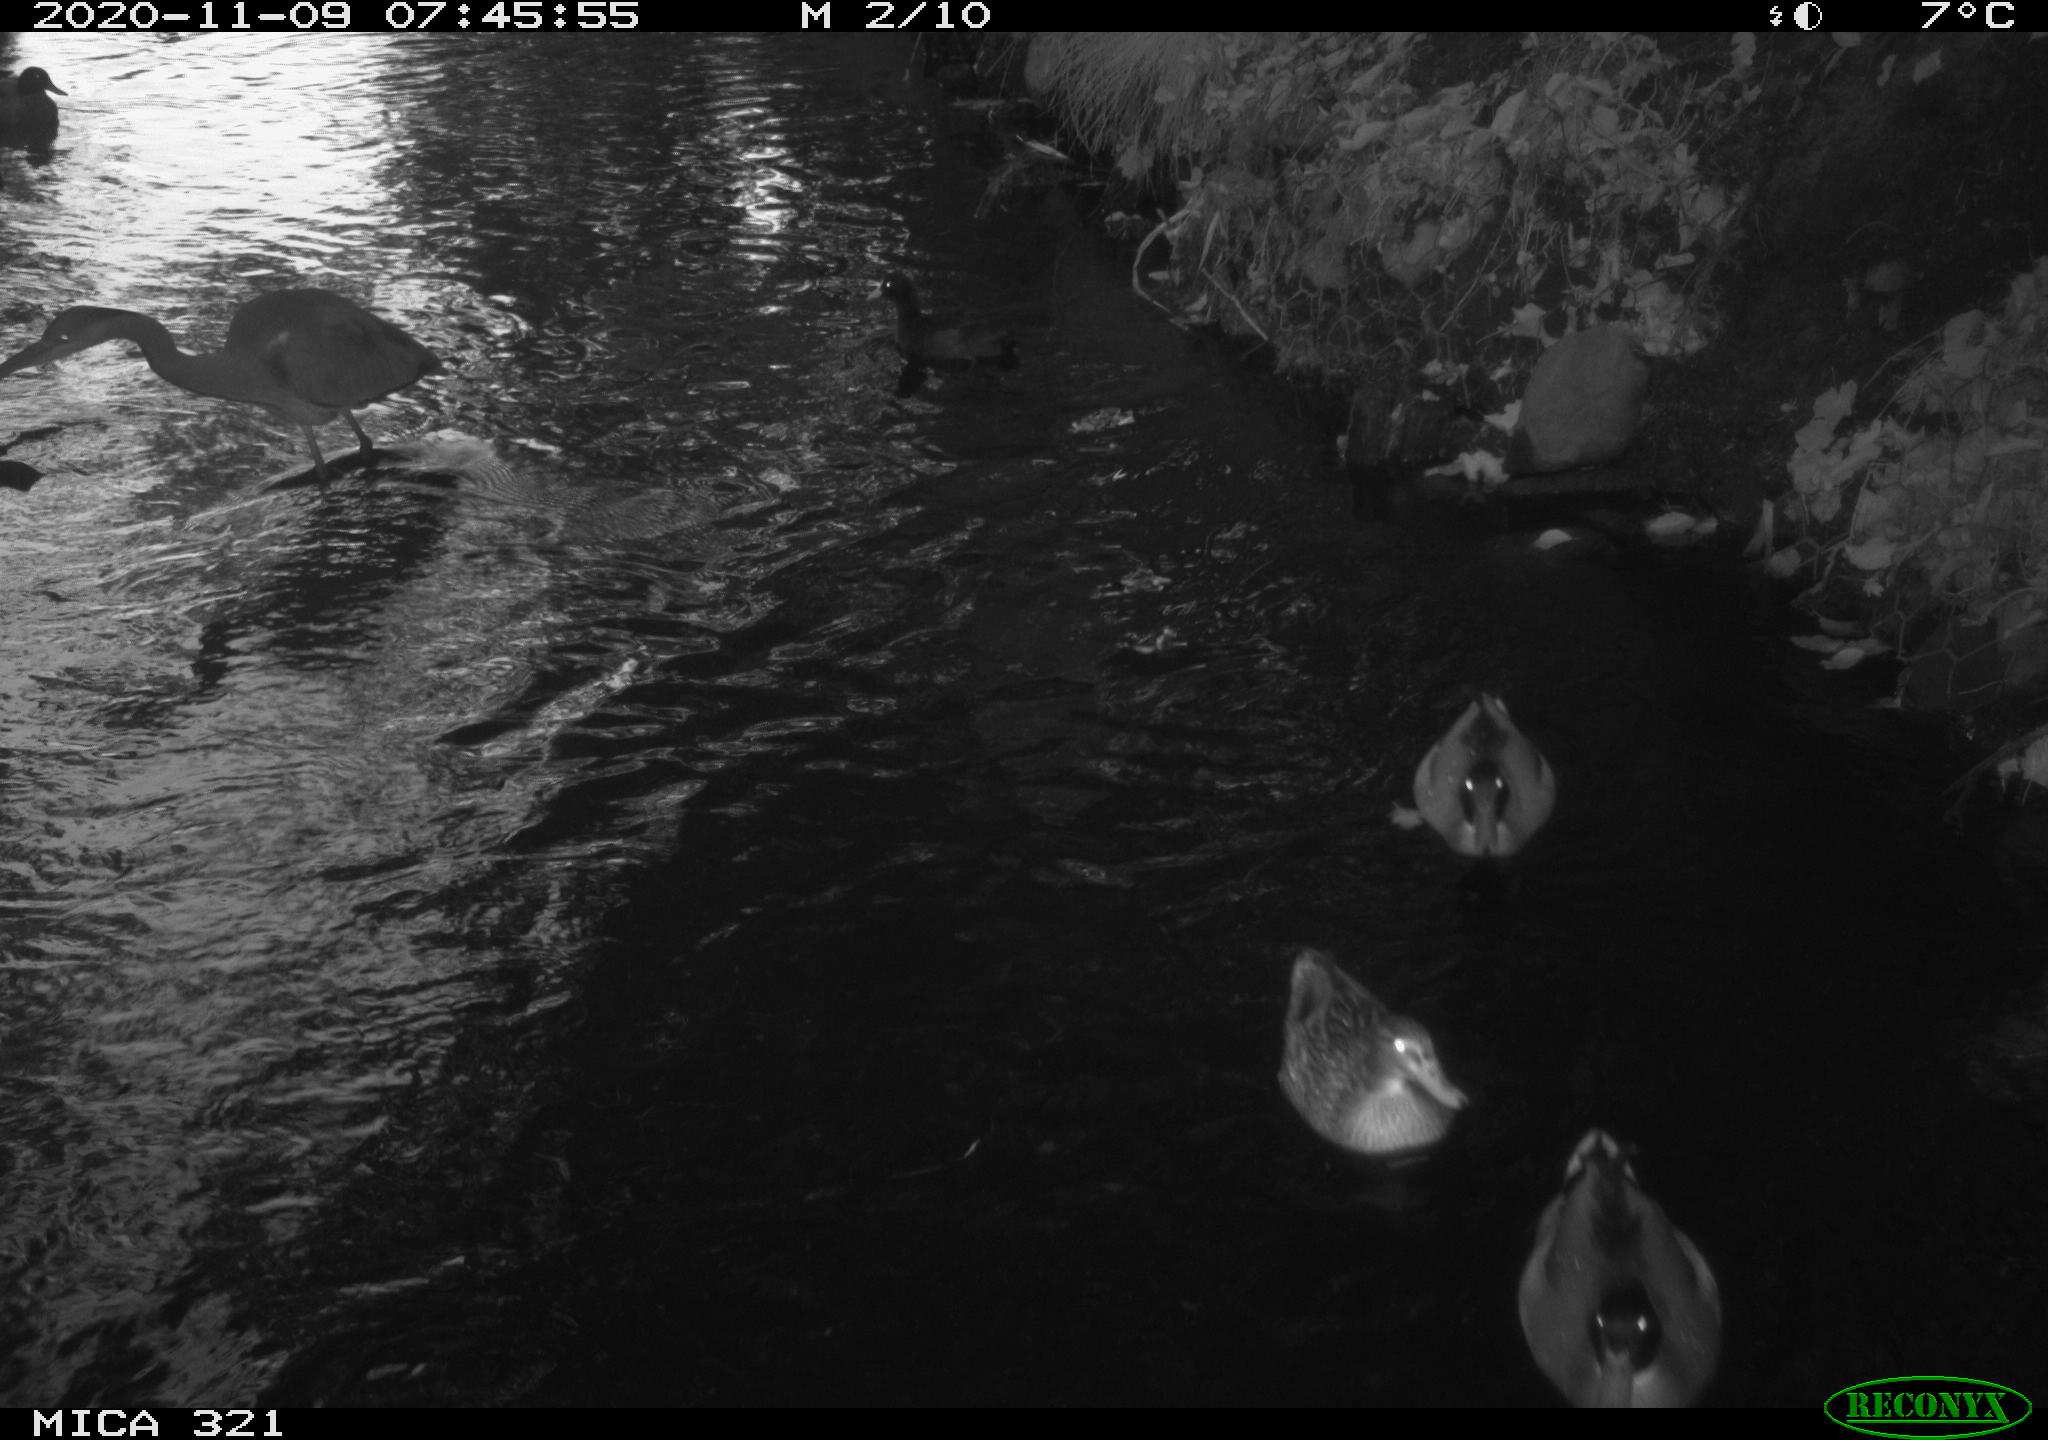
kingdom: Animalia
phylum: Chordata
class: Aves
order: Pelecaniformes
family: Ardeidae
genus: Ardea
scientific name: Ardea cinerea
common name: Grey heron
